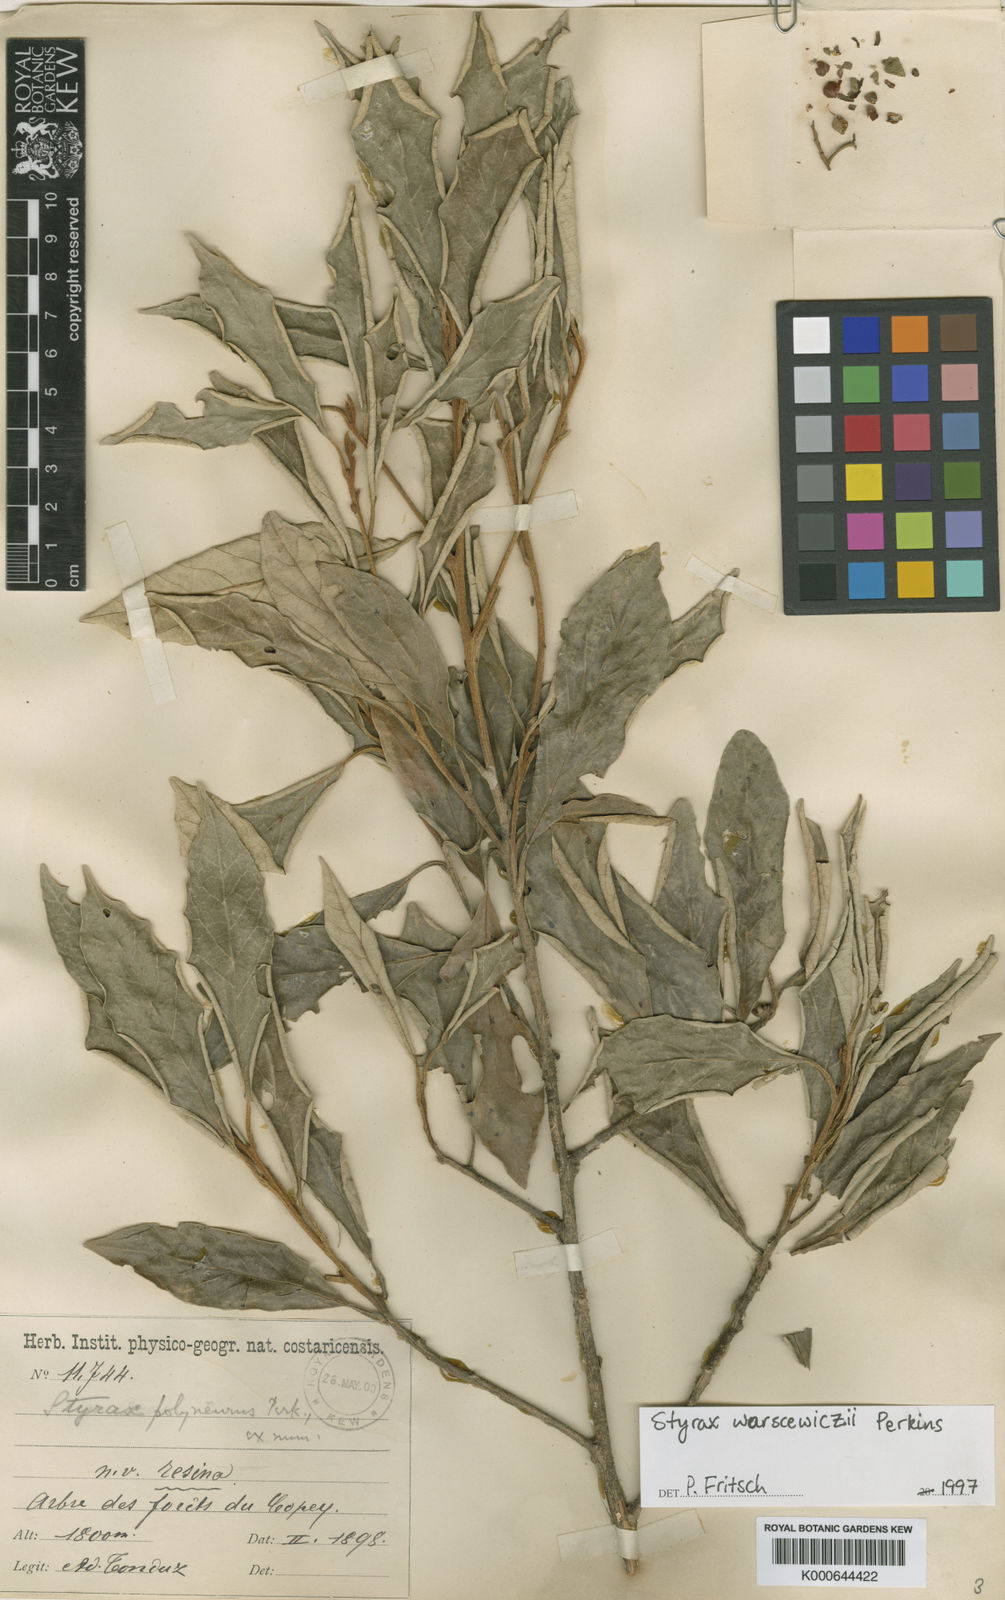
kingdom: Plantae
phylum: Tracheophyta
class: Magnoliopsida
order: Ericales
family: Styracaceae
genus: Styrax
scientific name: Styrax warscewiczii
